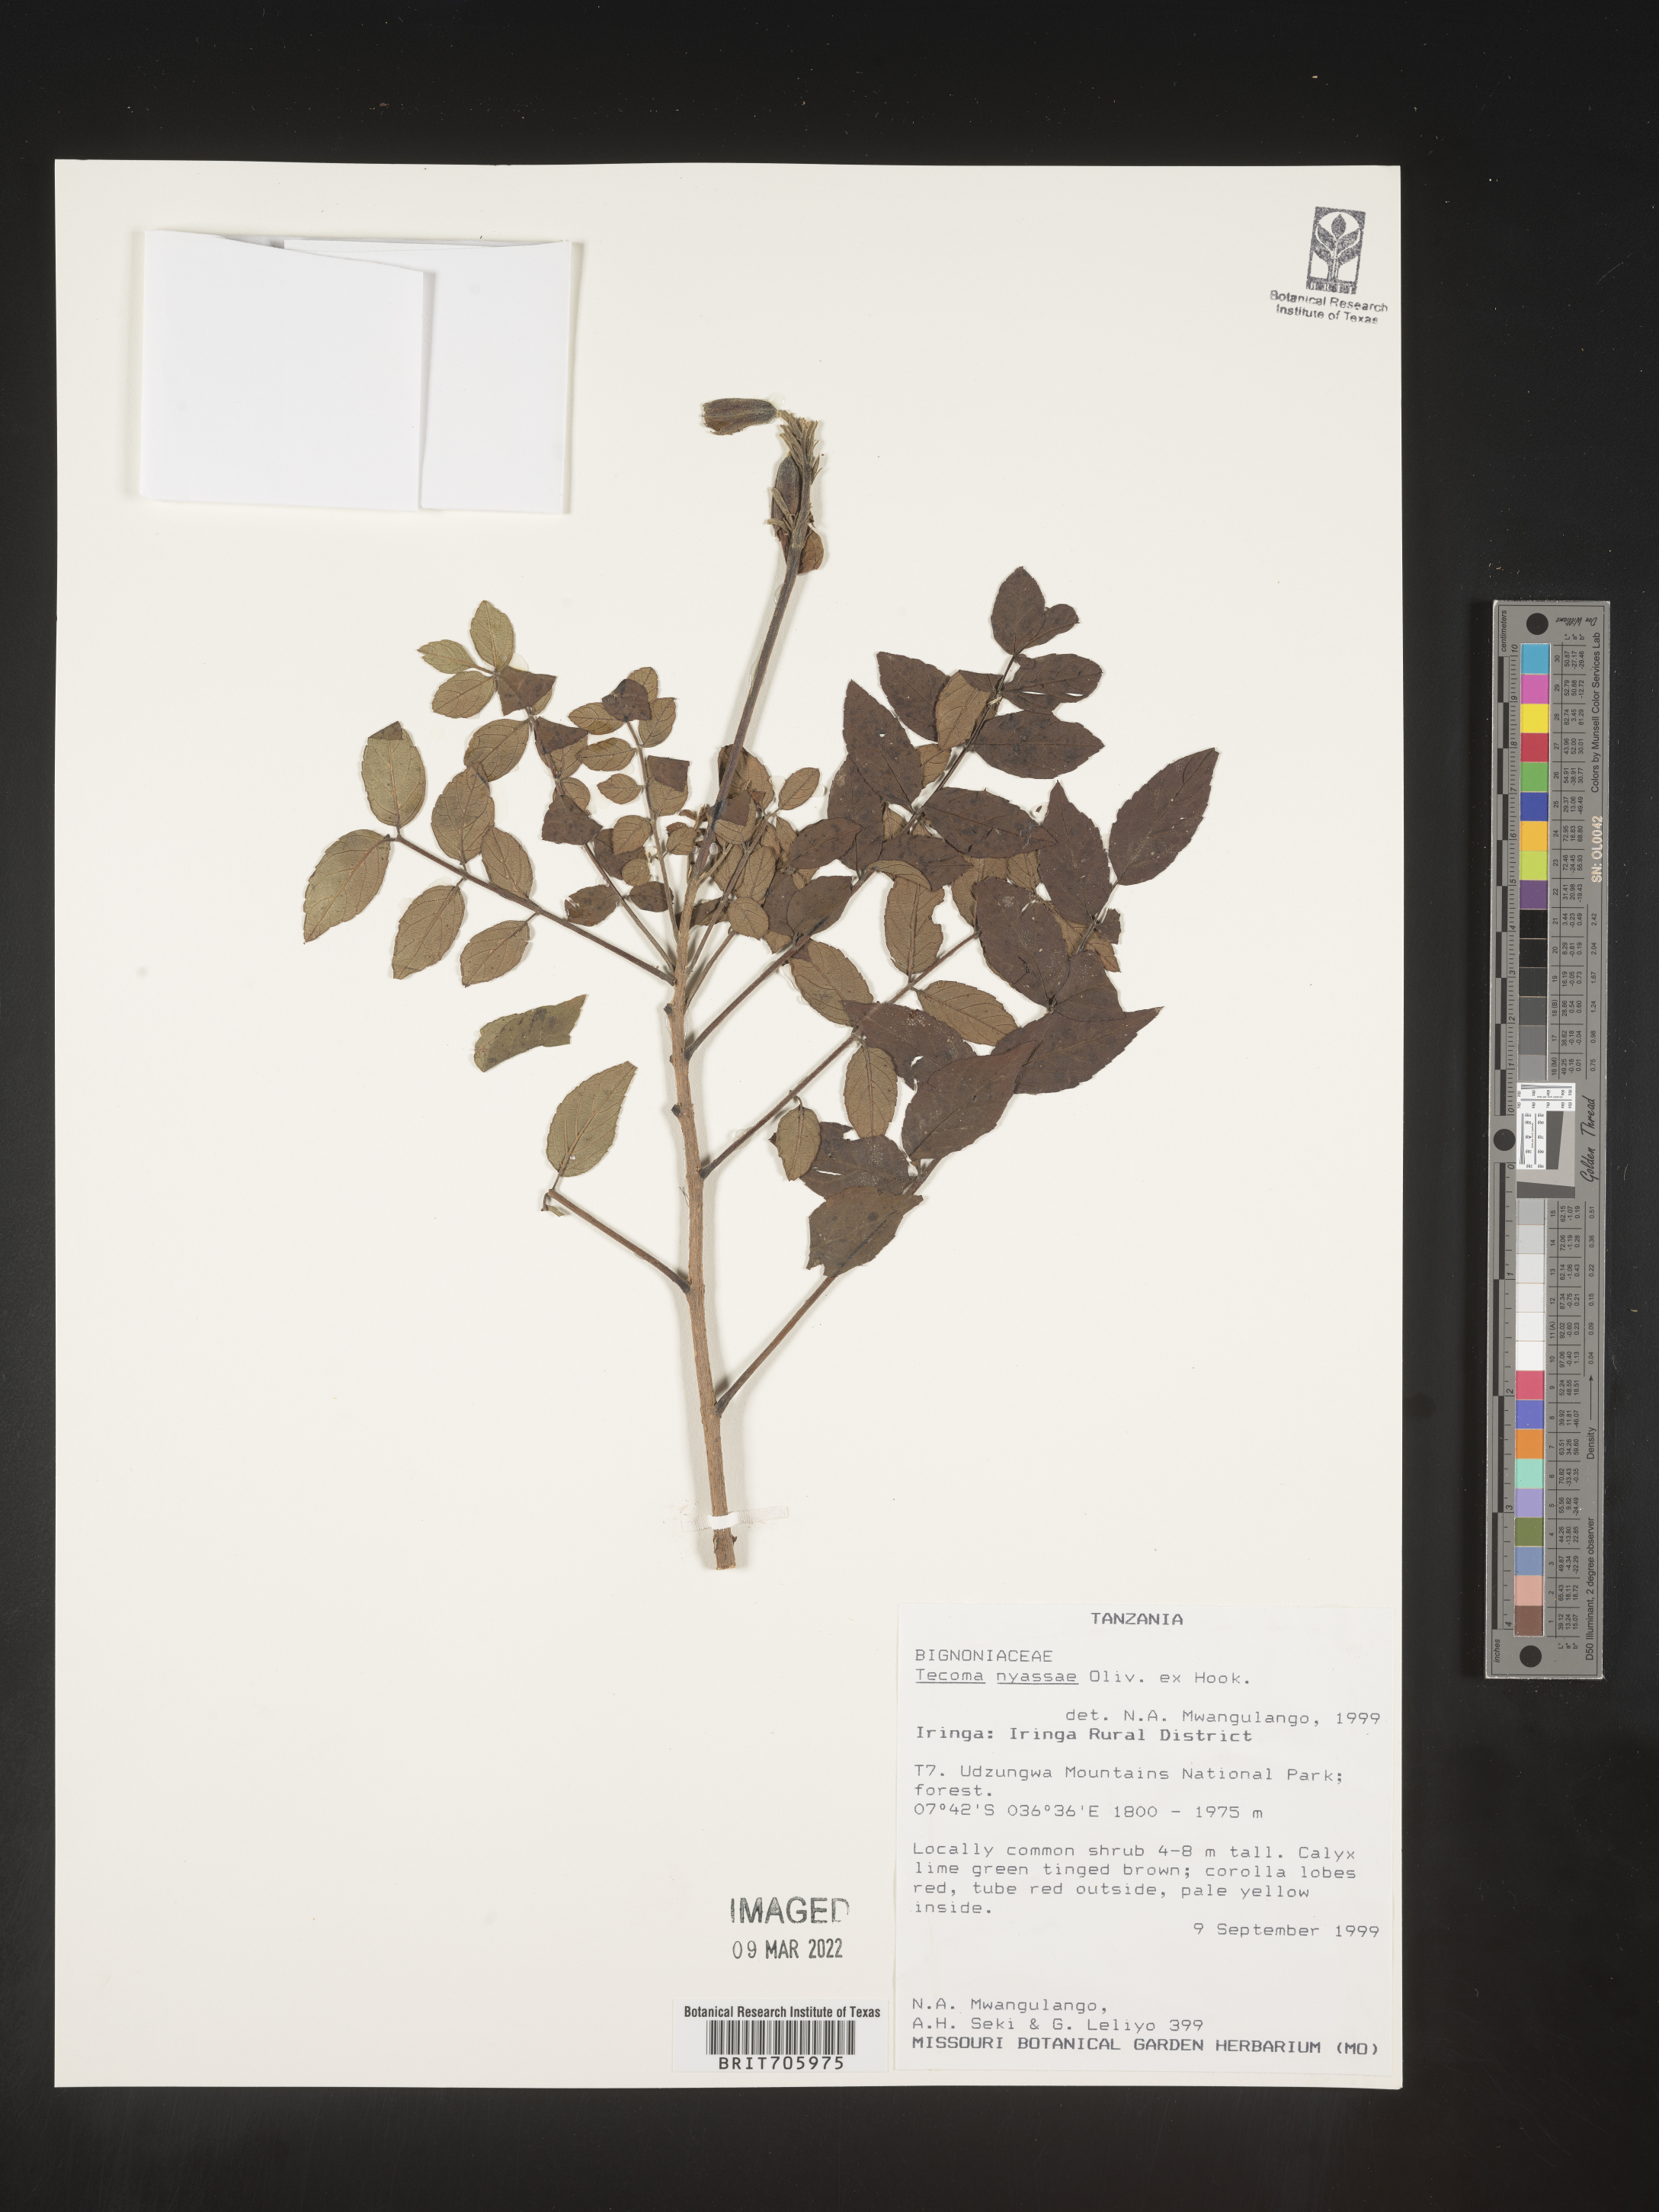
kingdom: Plantae
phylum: Tracheophyta
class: Magnoliopsida
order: Lamiales
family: Bignoniaceae
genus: Tecoma
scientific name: Tecoma
